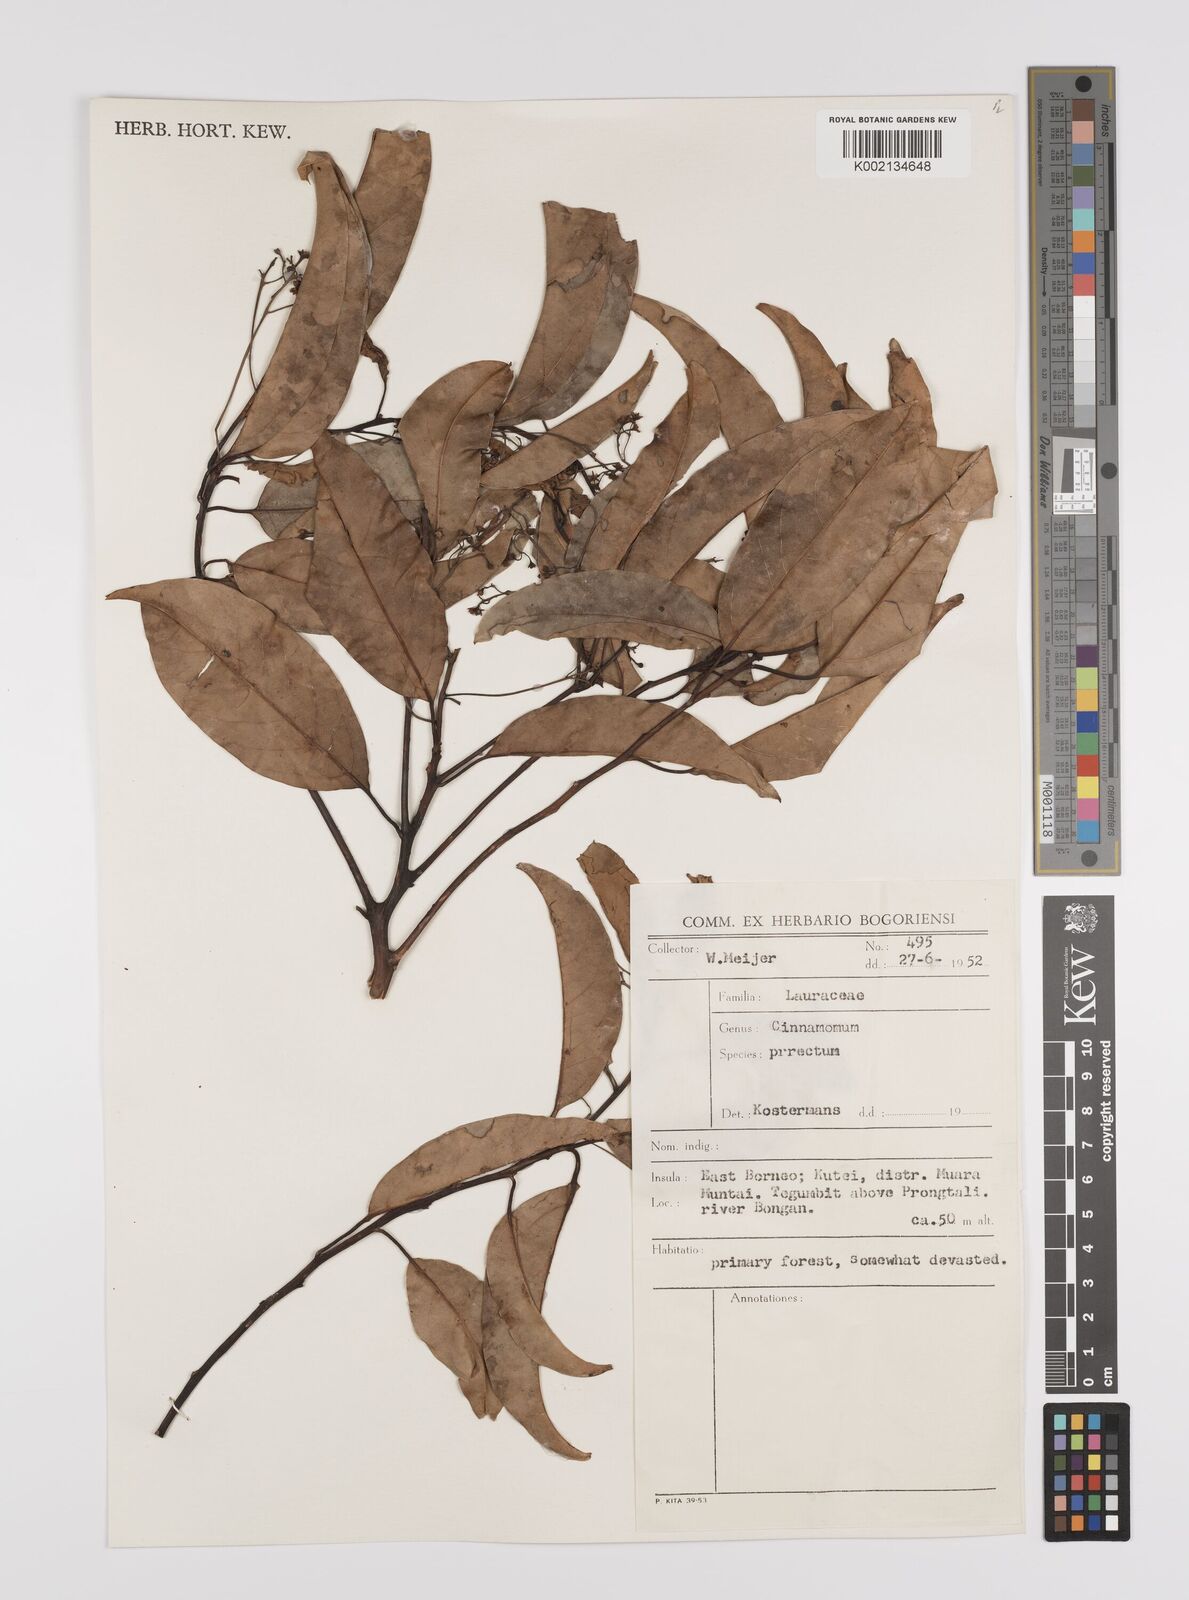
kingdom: Plantae
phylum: Tracheophyta
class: Magnoliopsida
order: Laurales
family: Lauraceae
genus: Cinnamomum
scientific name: Cinnamomum parthenoxylon
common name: Martaban camphor wood
